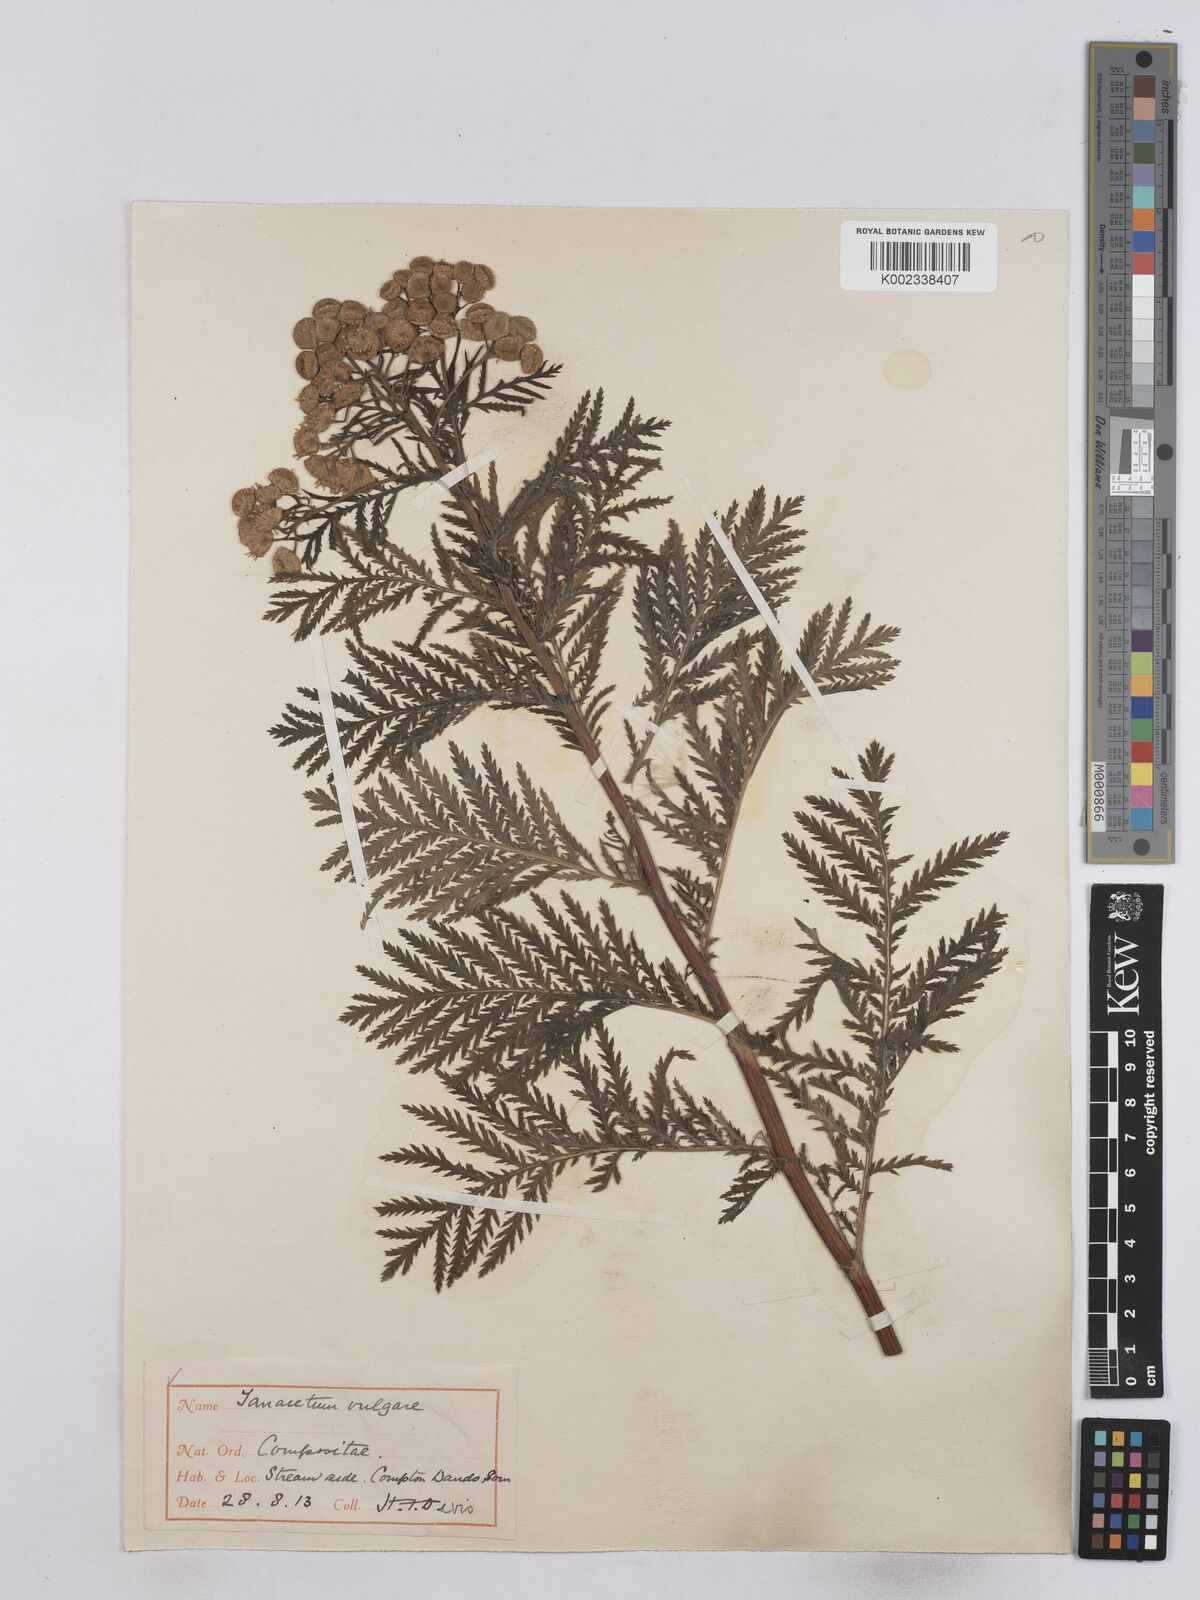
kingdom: Plantae
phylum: Tracheophyta
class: Magnoliopsida
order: Asterales
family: Asteraceae
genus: Tanacetum
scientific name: Tanacetum vulgare
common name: Common tansy
